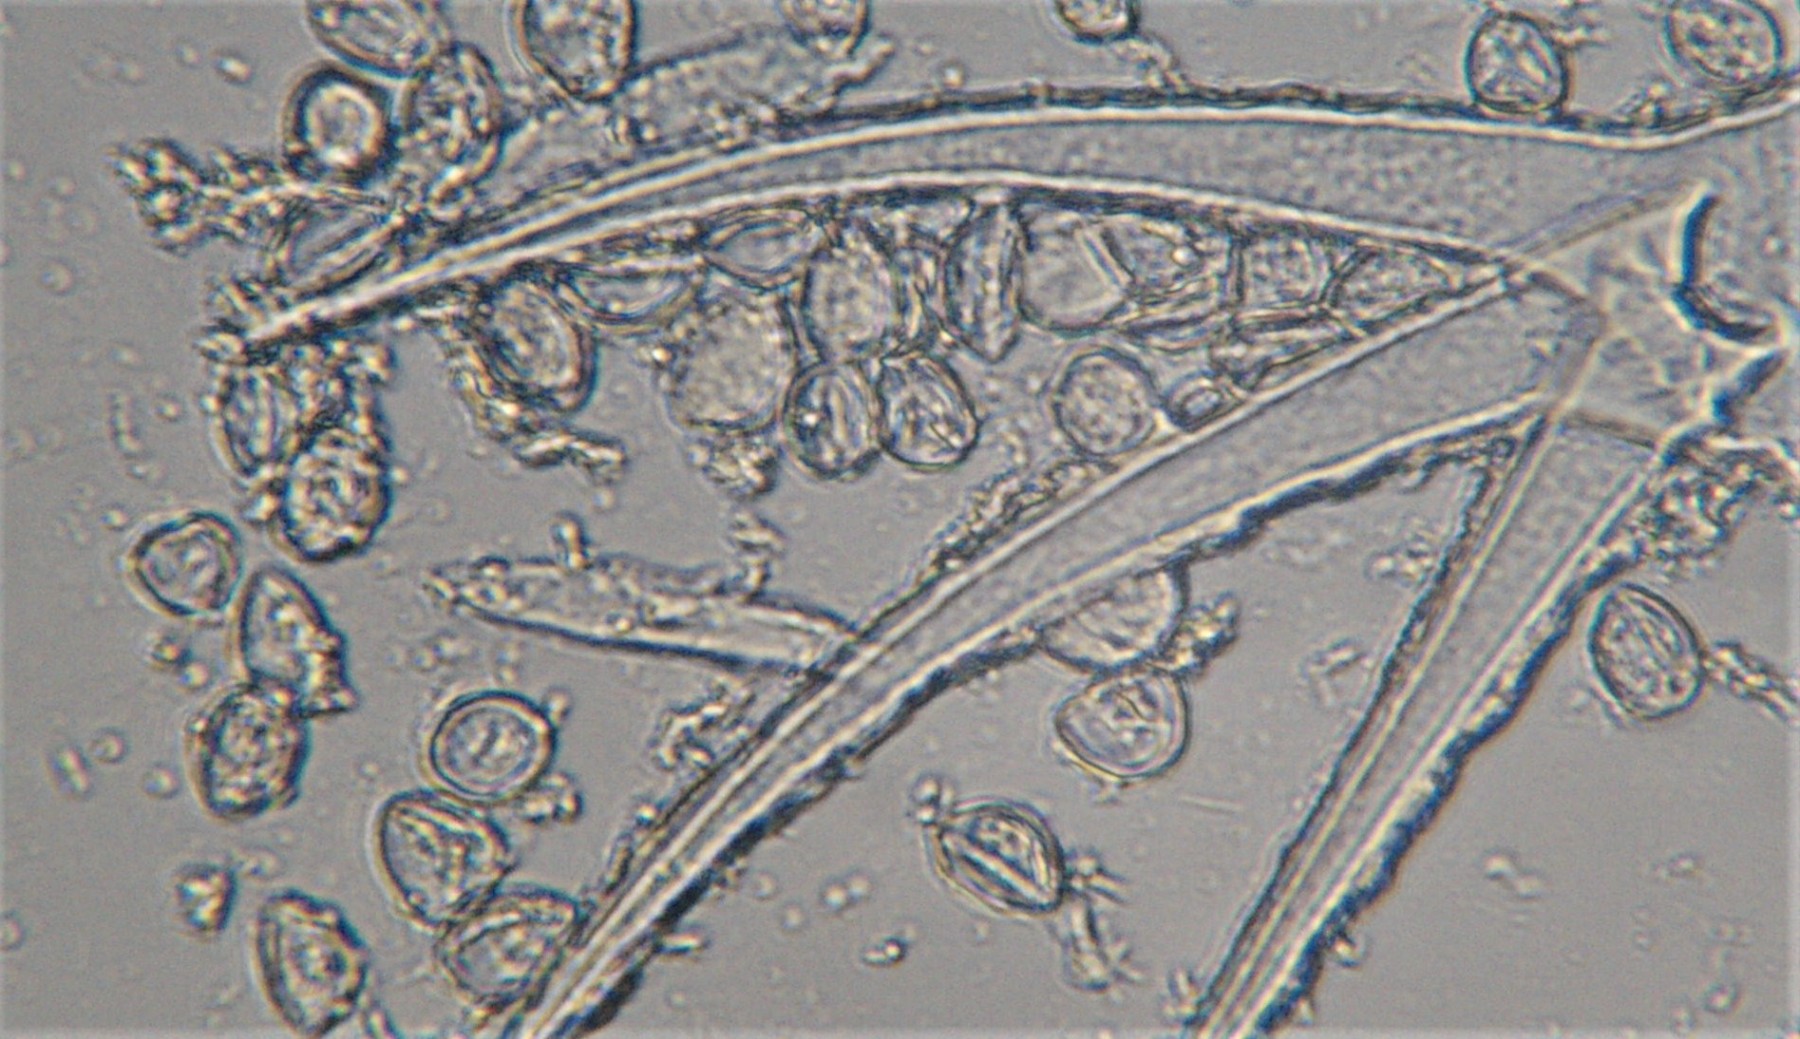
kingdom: Chromista
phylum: Oomycota
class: Peronosporea
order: Albuginales
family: Albuginaceae
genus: Albugo
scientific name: Albugo candida
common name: Crucifer white blister
